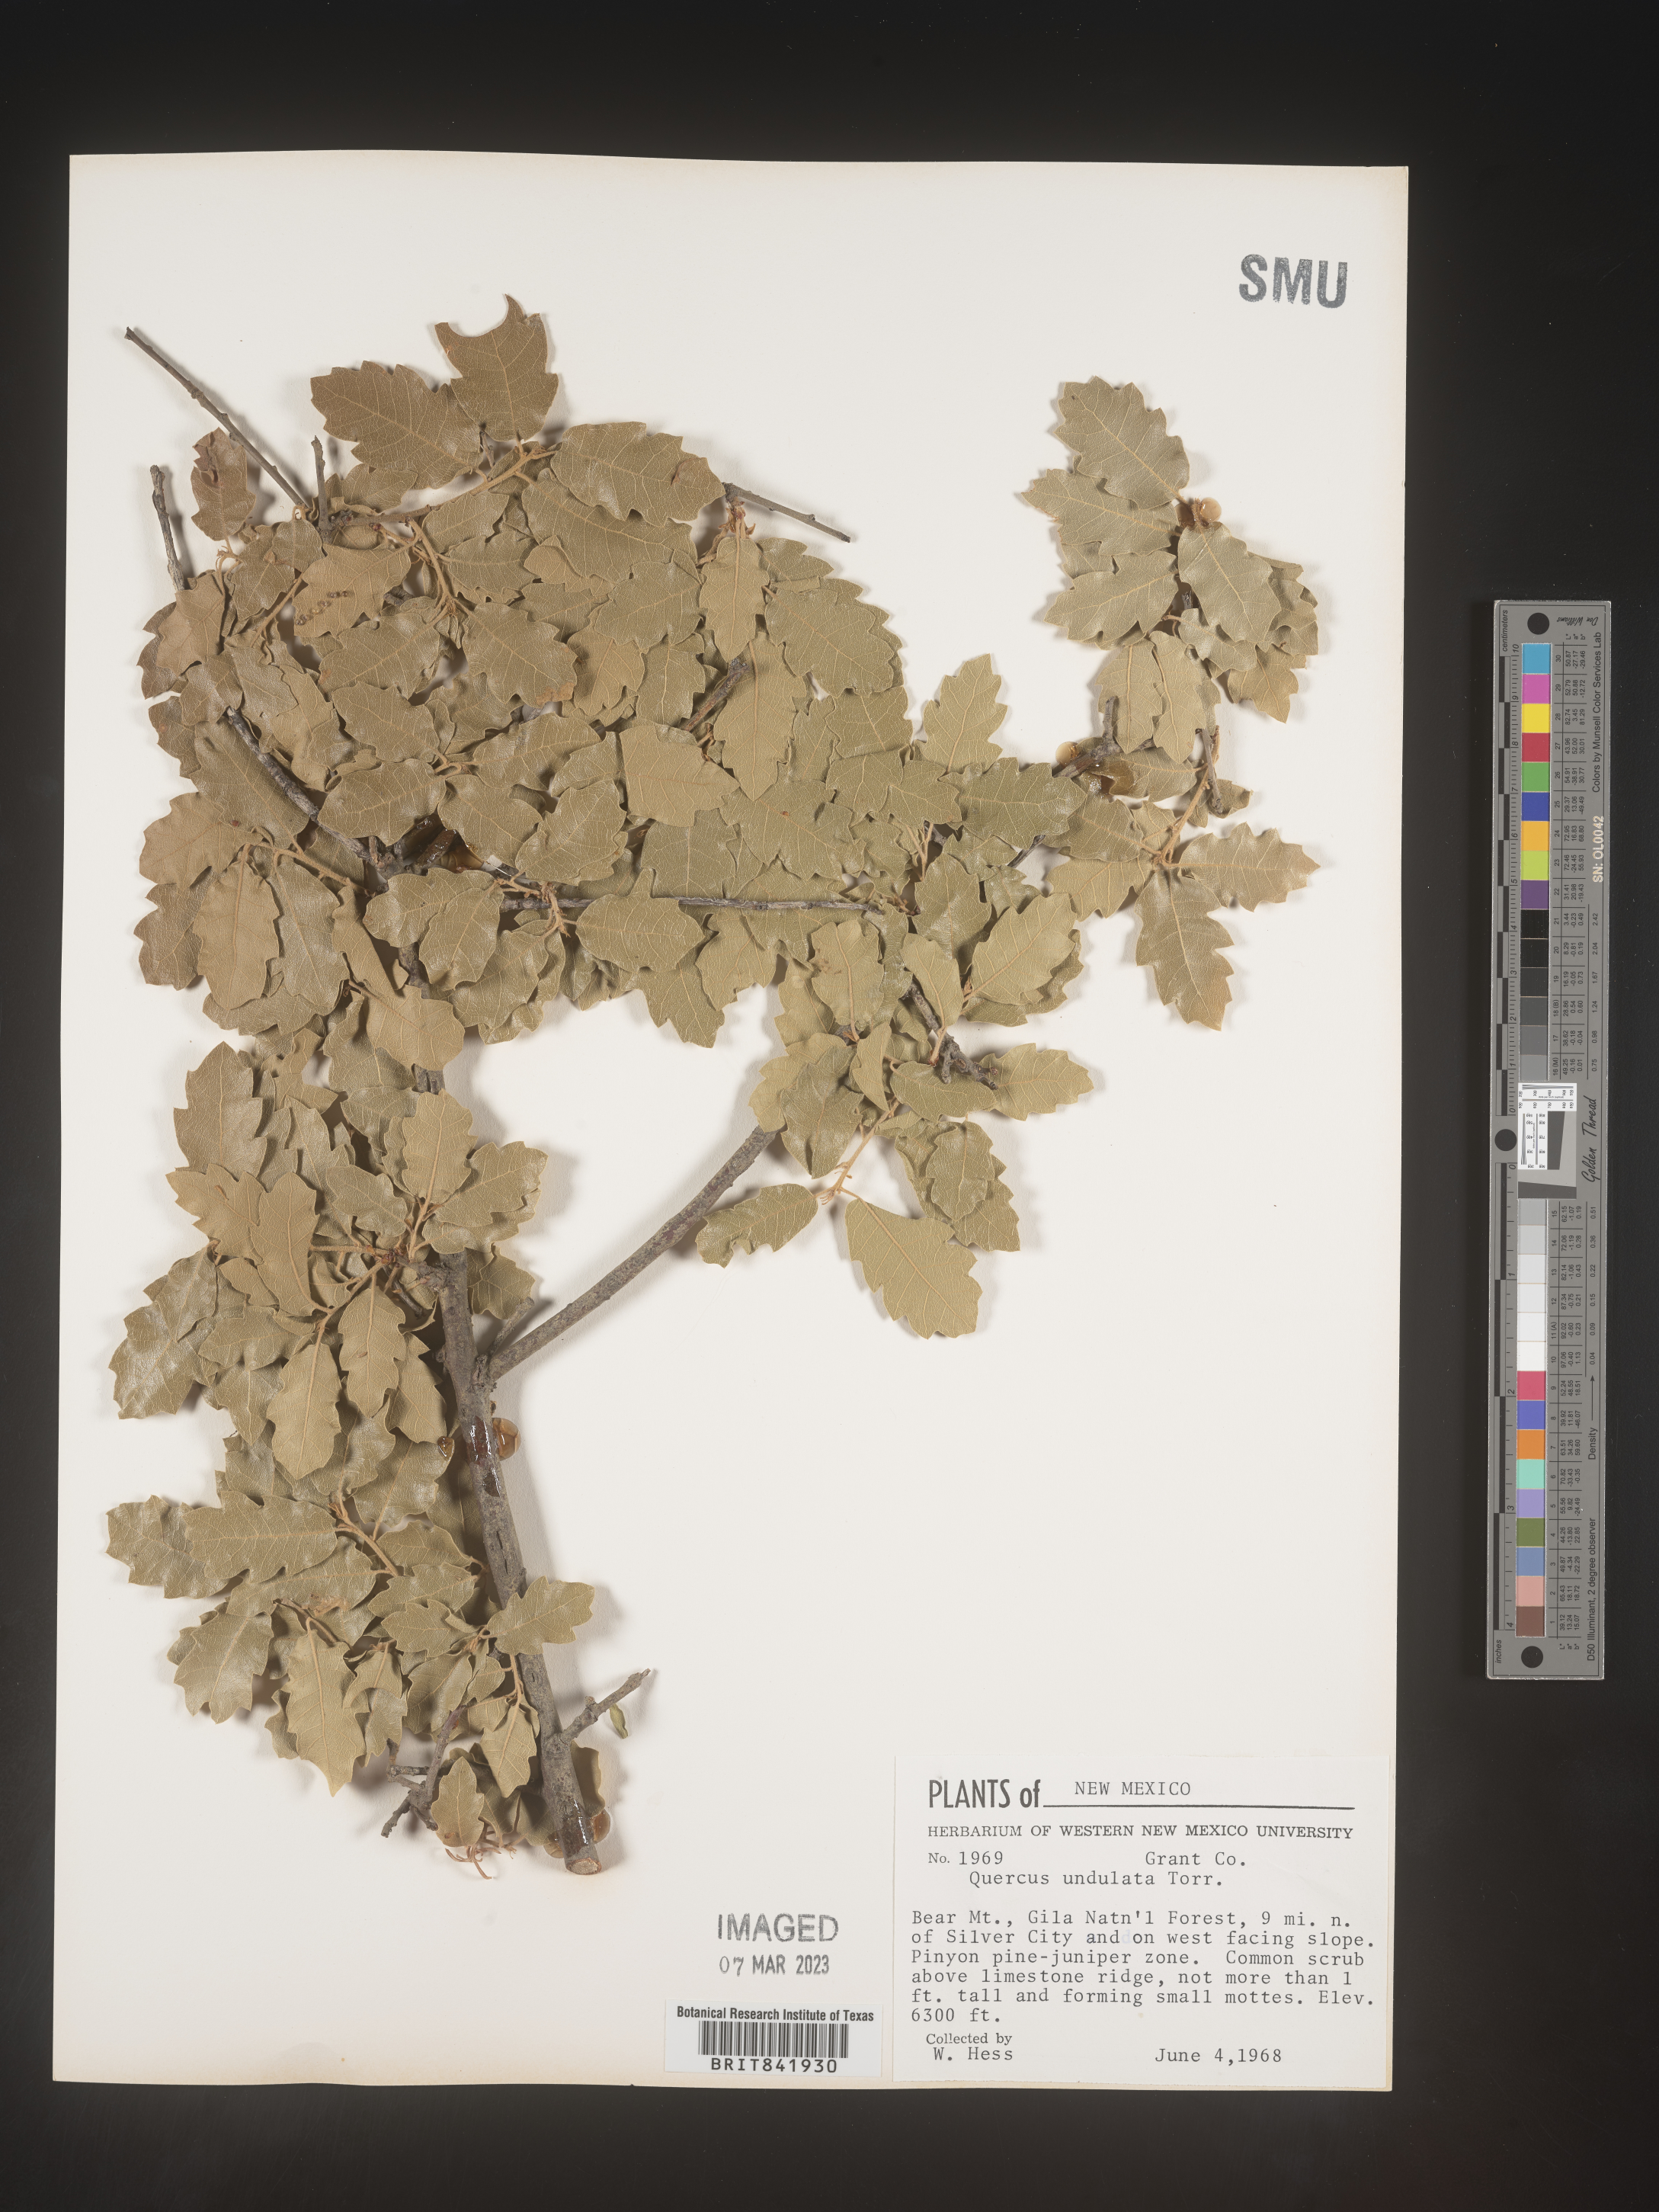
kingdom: Plantae
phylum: Tracheophyta
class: Magnoliopsida
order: Fagales
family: Fagaceae
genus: Quercus
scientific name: Quercus undulata
